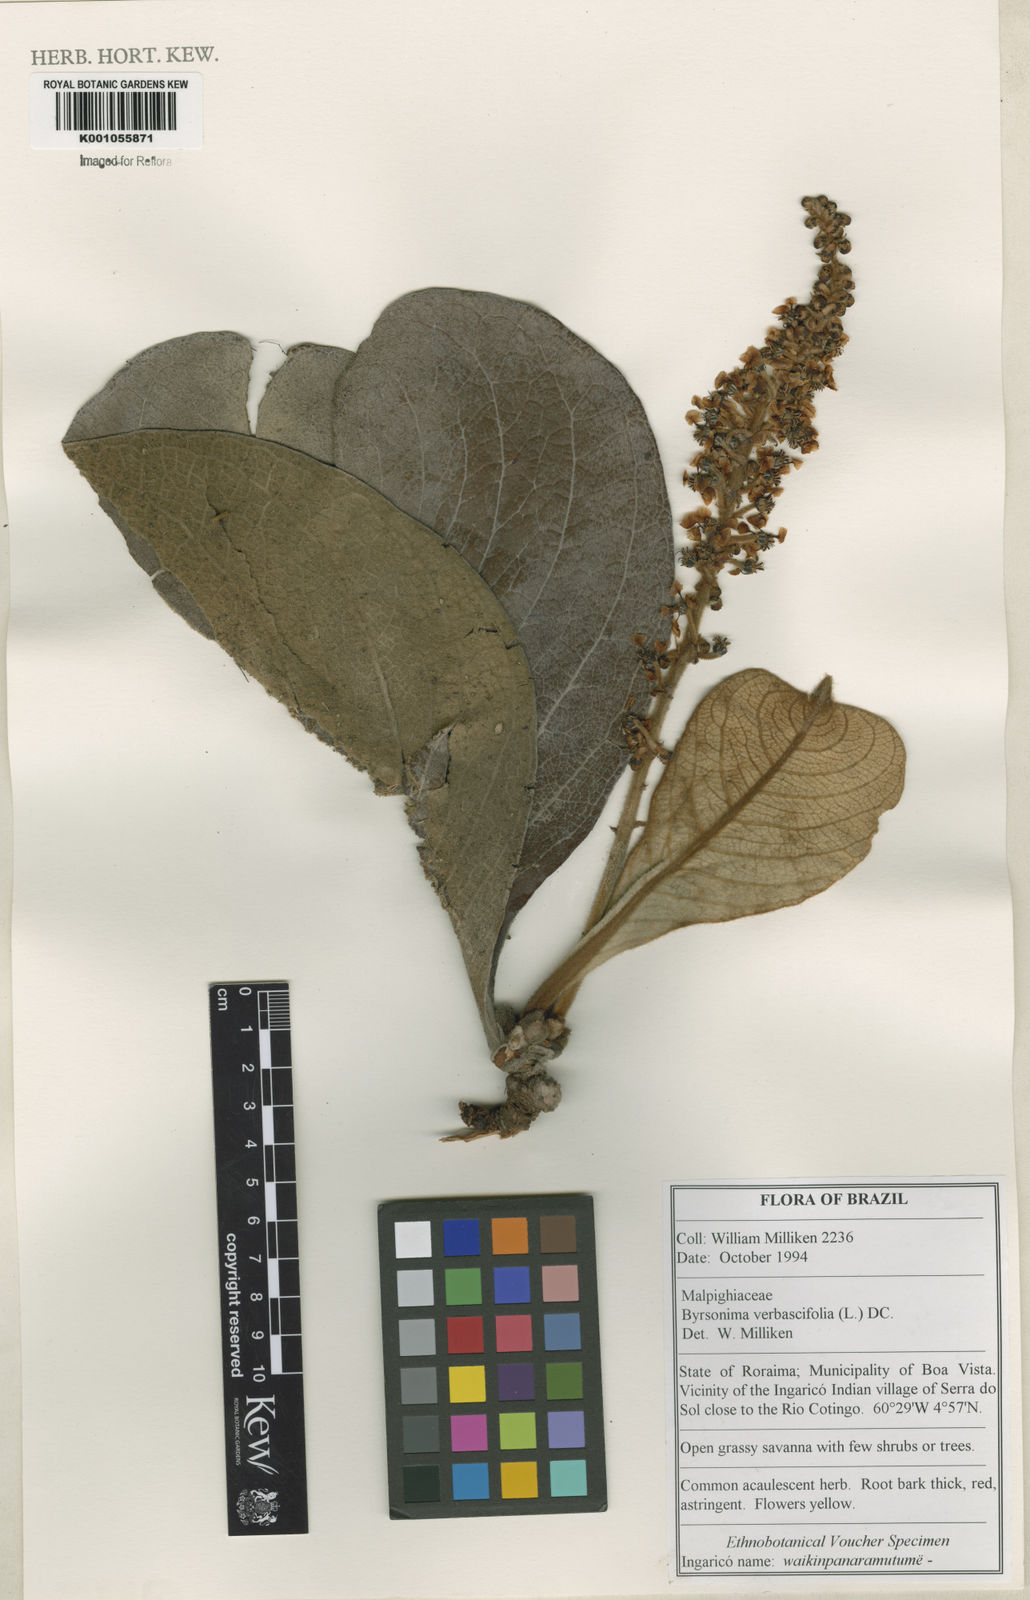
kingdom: Plantae
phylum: Tracheophyta
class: Magnoliopsida
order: Malpighiales
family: Malpighiaceae
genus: Byrsonima
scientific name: Byrsonima verbascifolia
